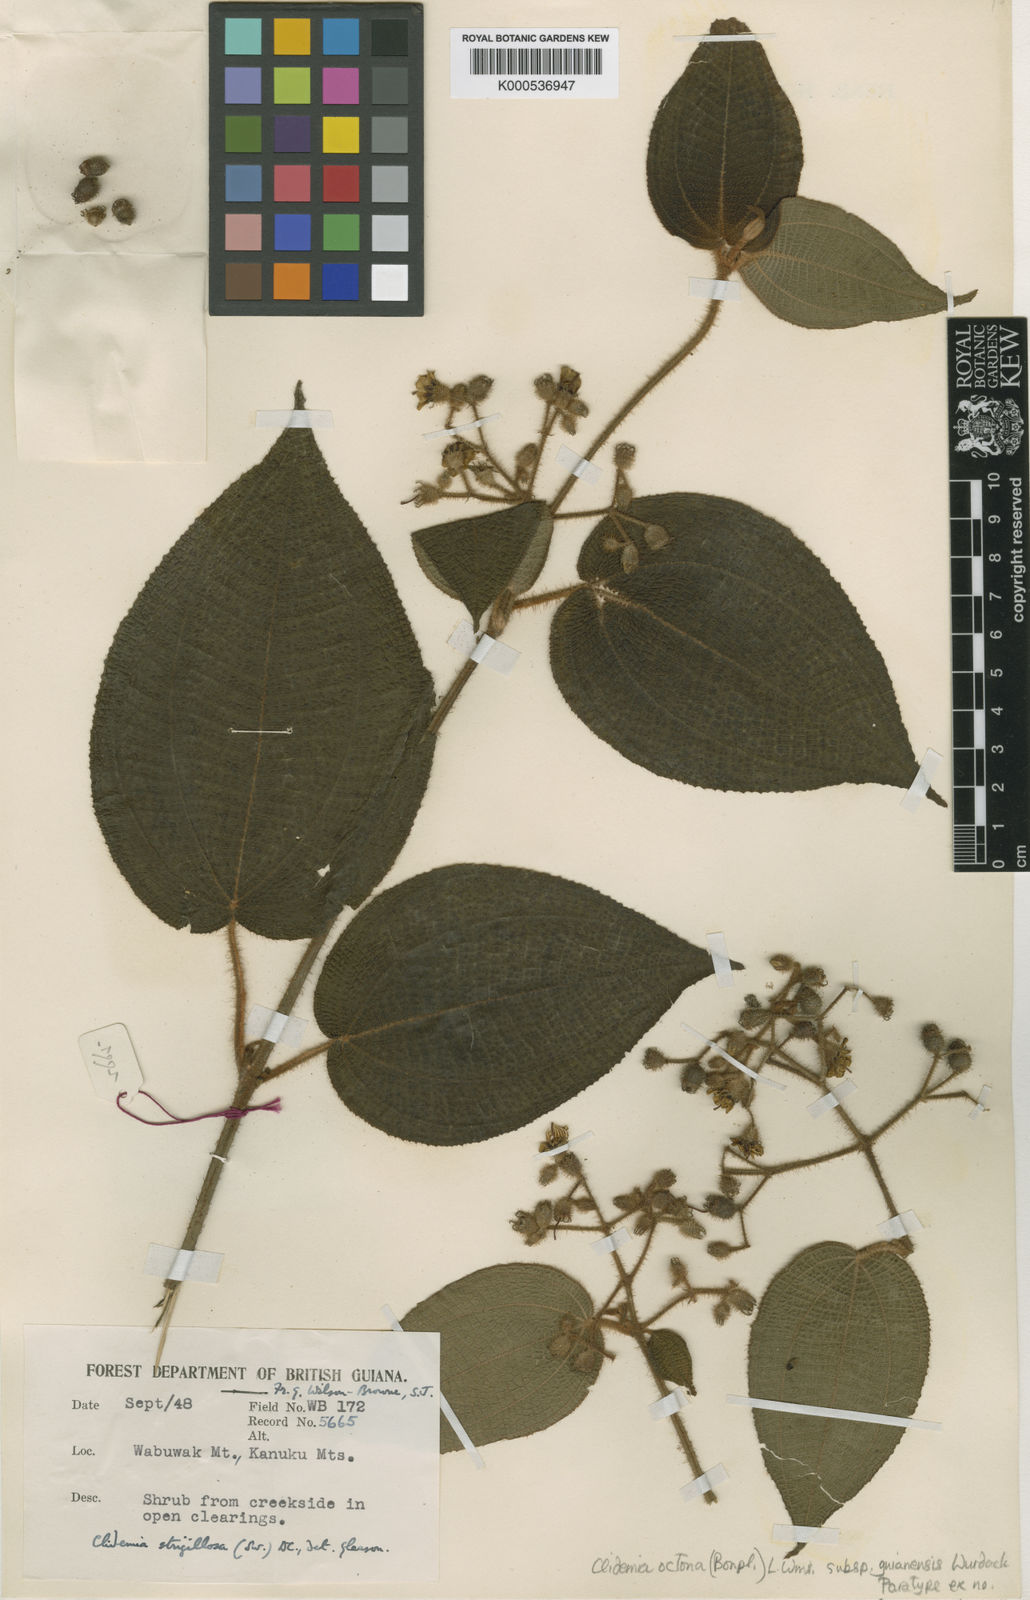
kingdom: Plantae
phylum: Tracheophyta
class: Magnoliopsida
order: Myrtales
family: Melastomataceae
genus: Miconia
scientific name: Miconia octona
